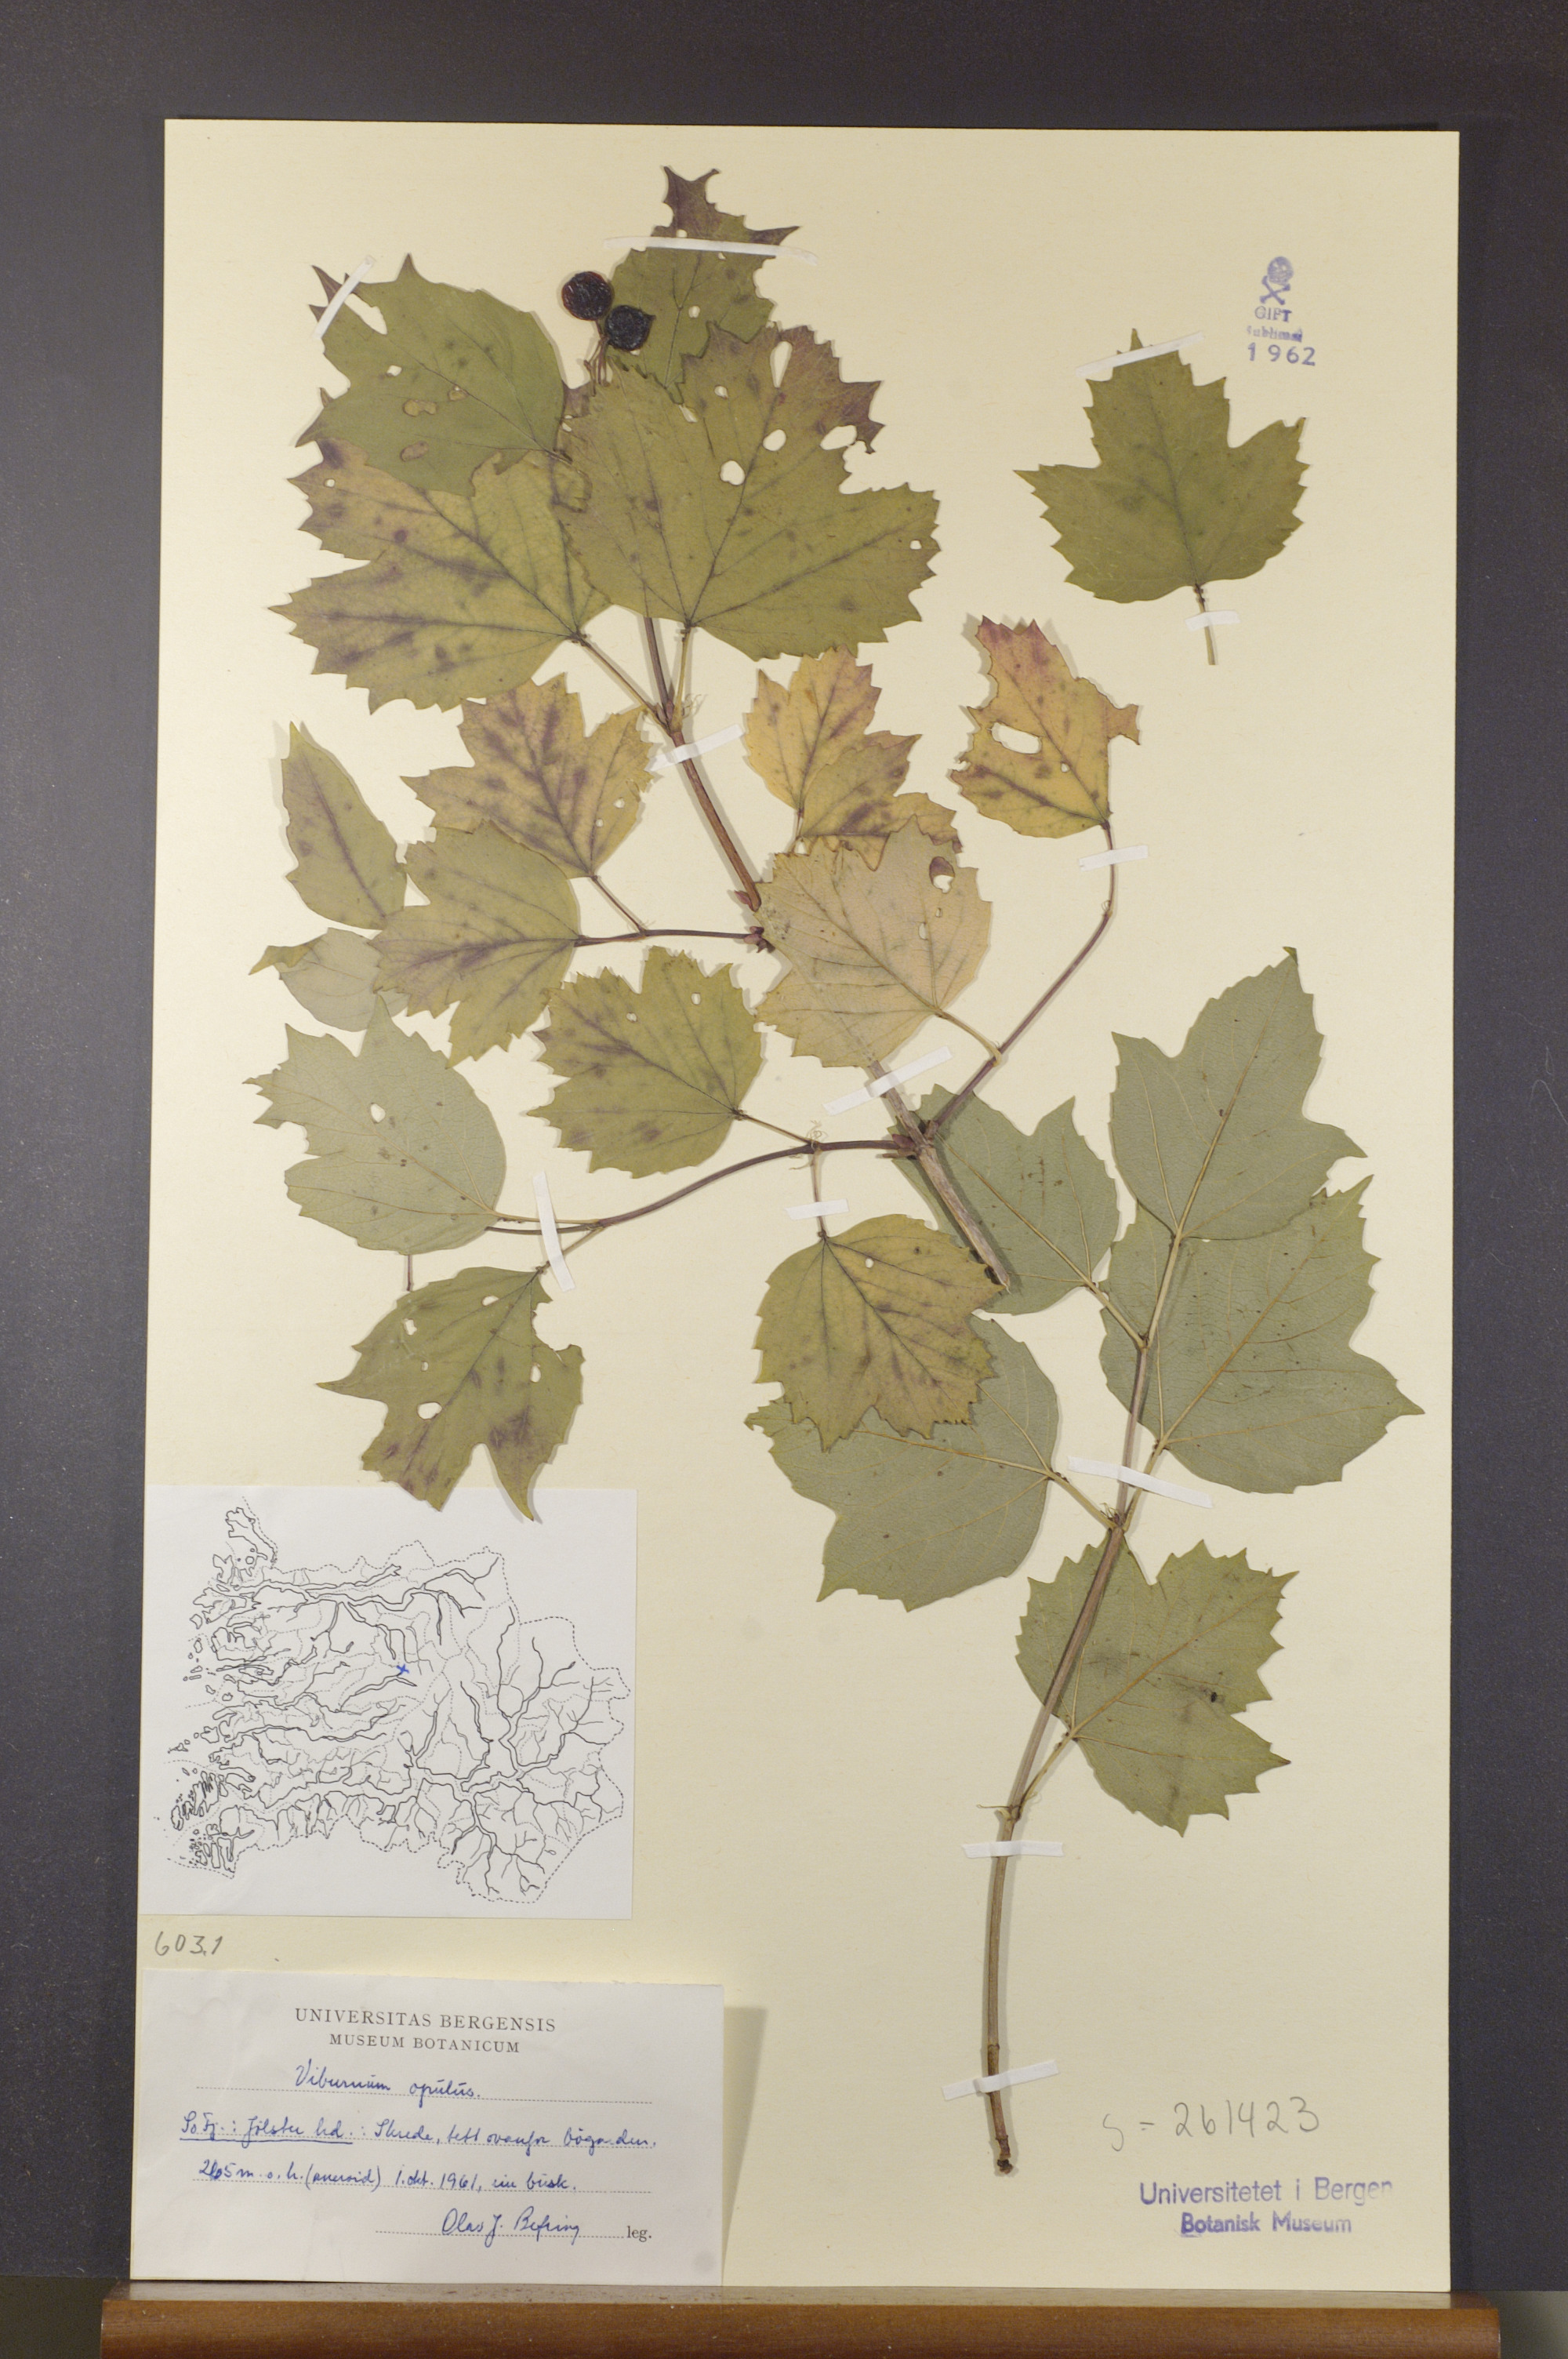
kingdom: Plantae
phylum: Tracheophyta
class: Magnoliopsida
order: Dipsacales
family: Viburnaceae
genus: Viburnum
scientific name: Viburnum opulus
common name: Guelder-rose
